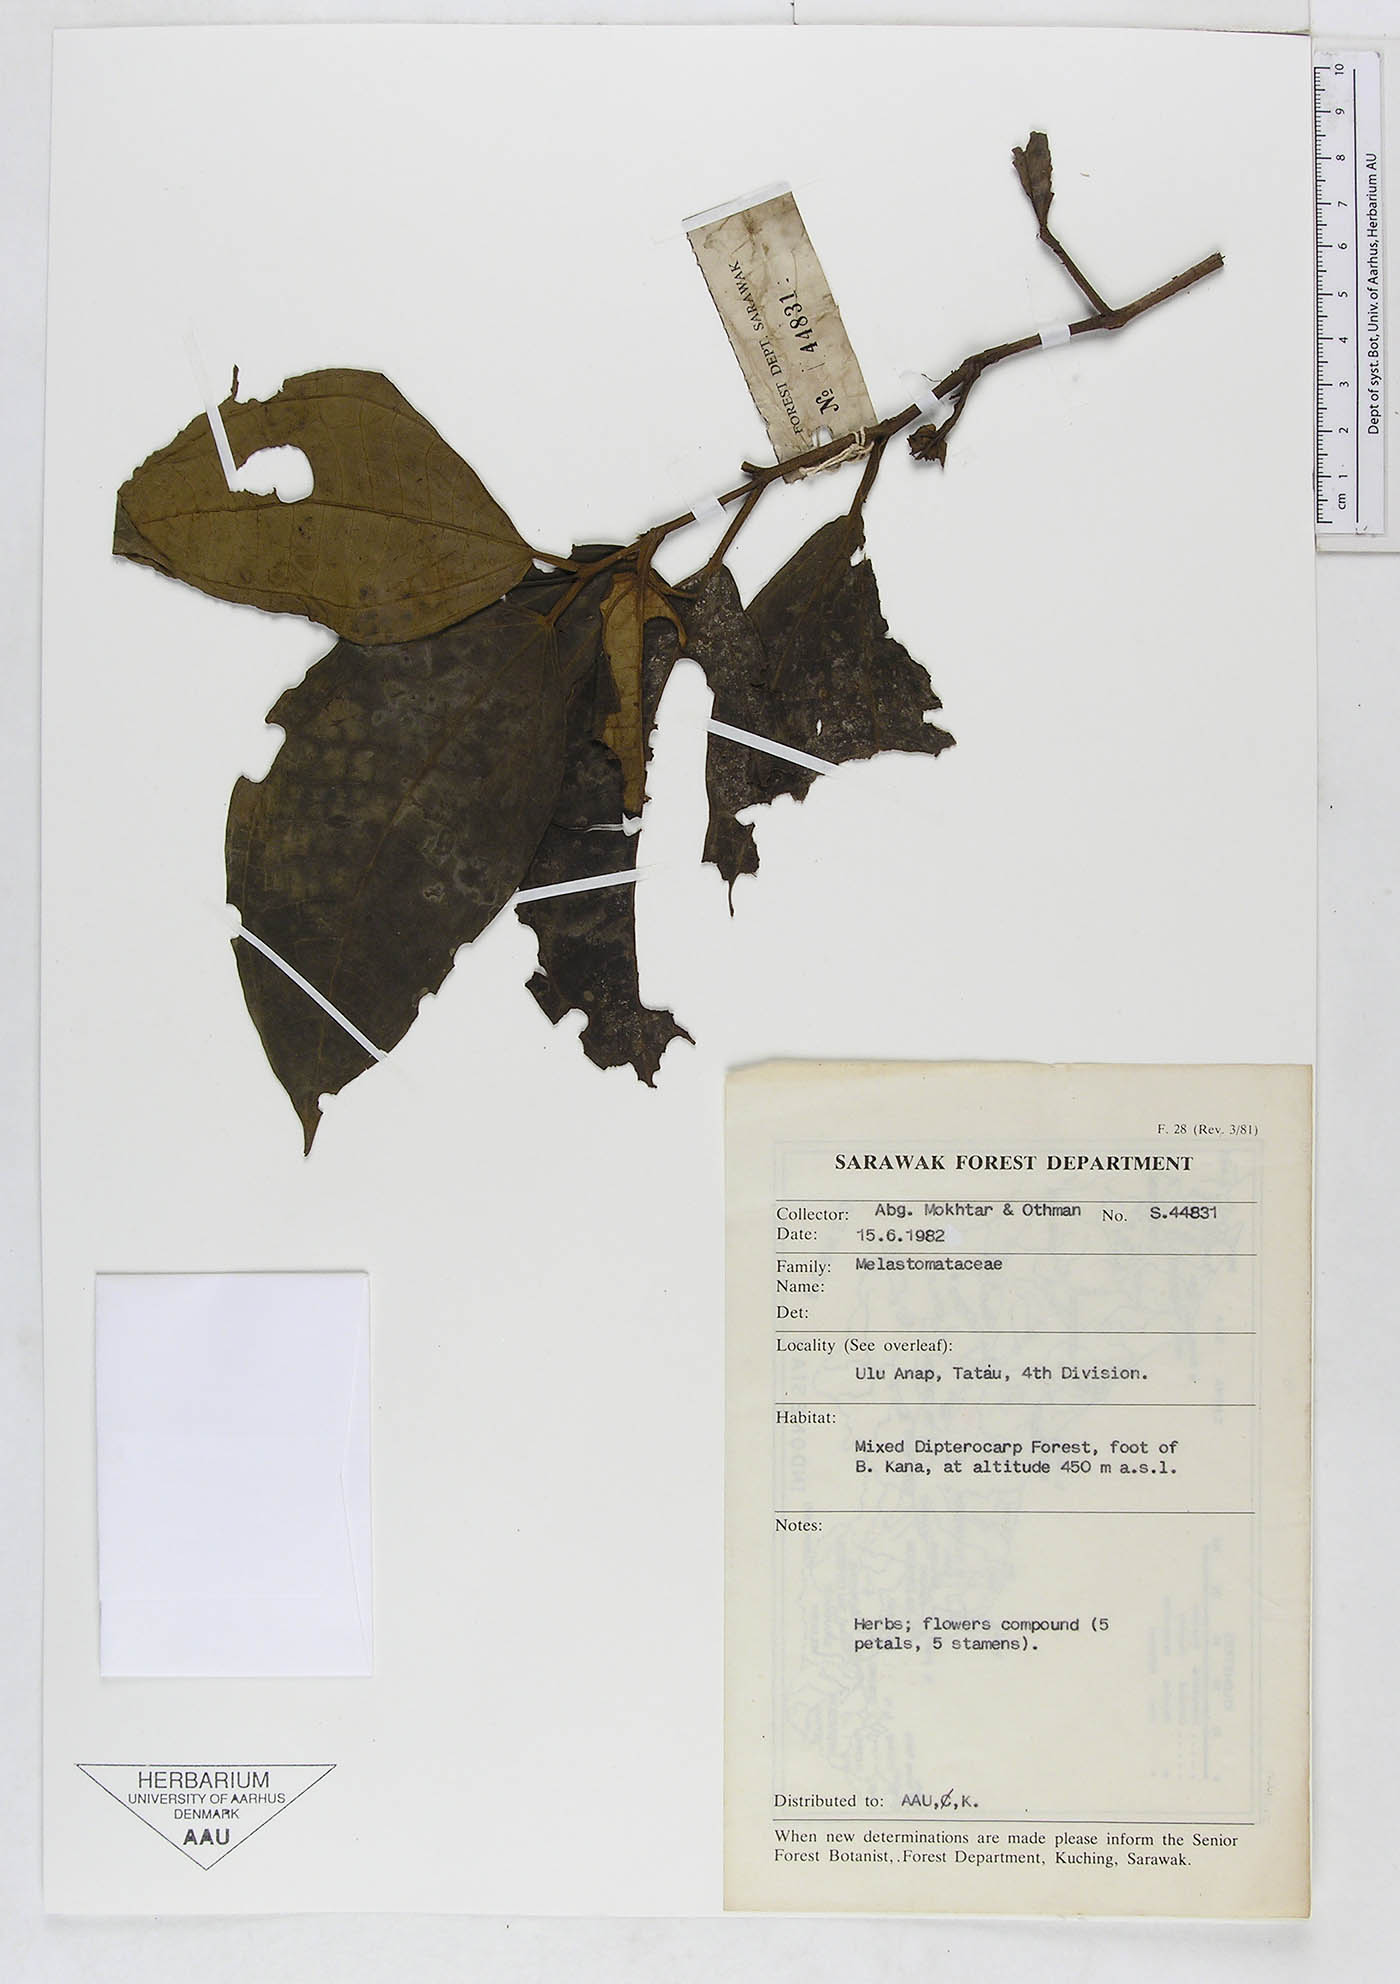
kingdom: Plantae
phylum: Tracheophyta
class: Magnoliopsida
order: Myrtales
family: Melastomataceae
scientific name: Melastomataceae
